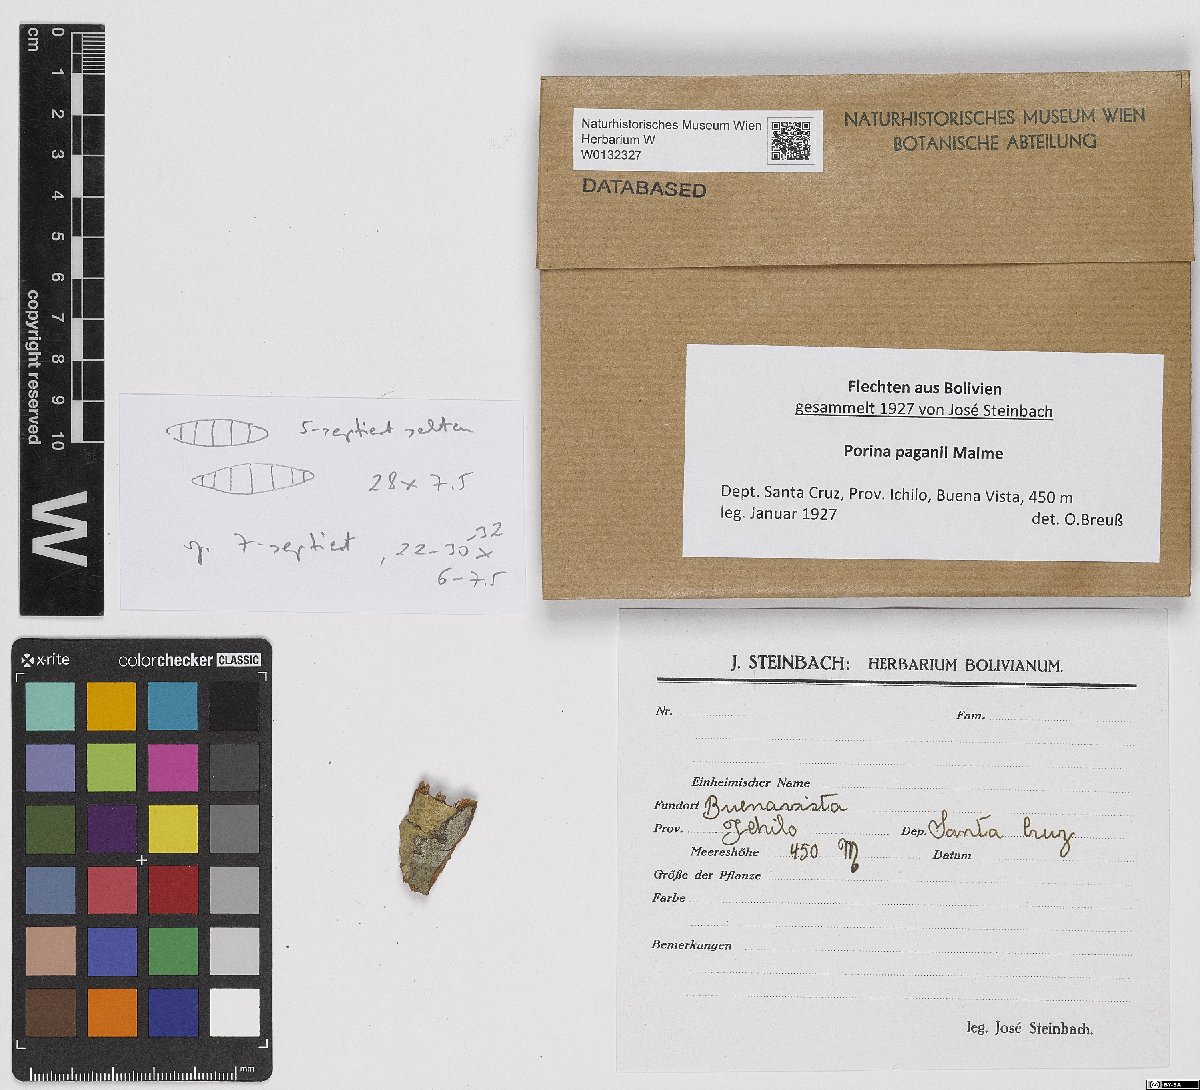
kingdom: Fungi
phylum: Ascomycota
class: Lecanoromycetes
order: Ostropales
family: Porinaceae
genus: Porina
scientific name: Porina
